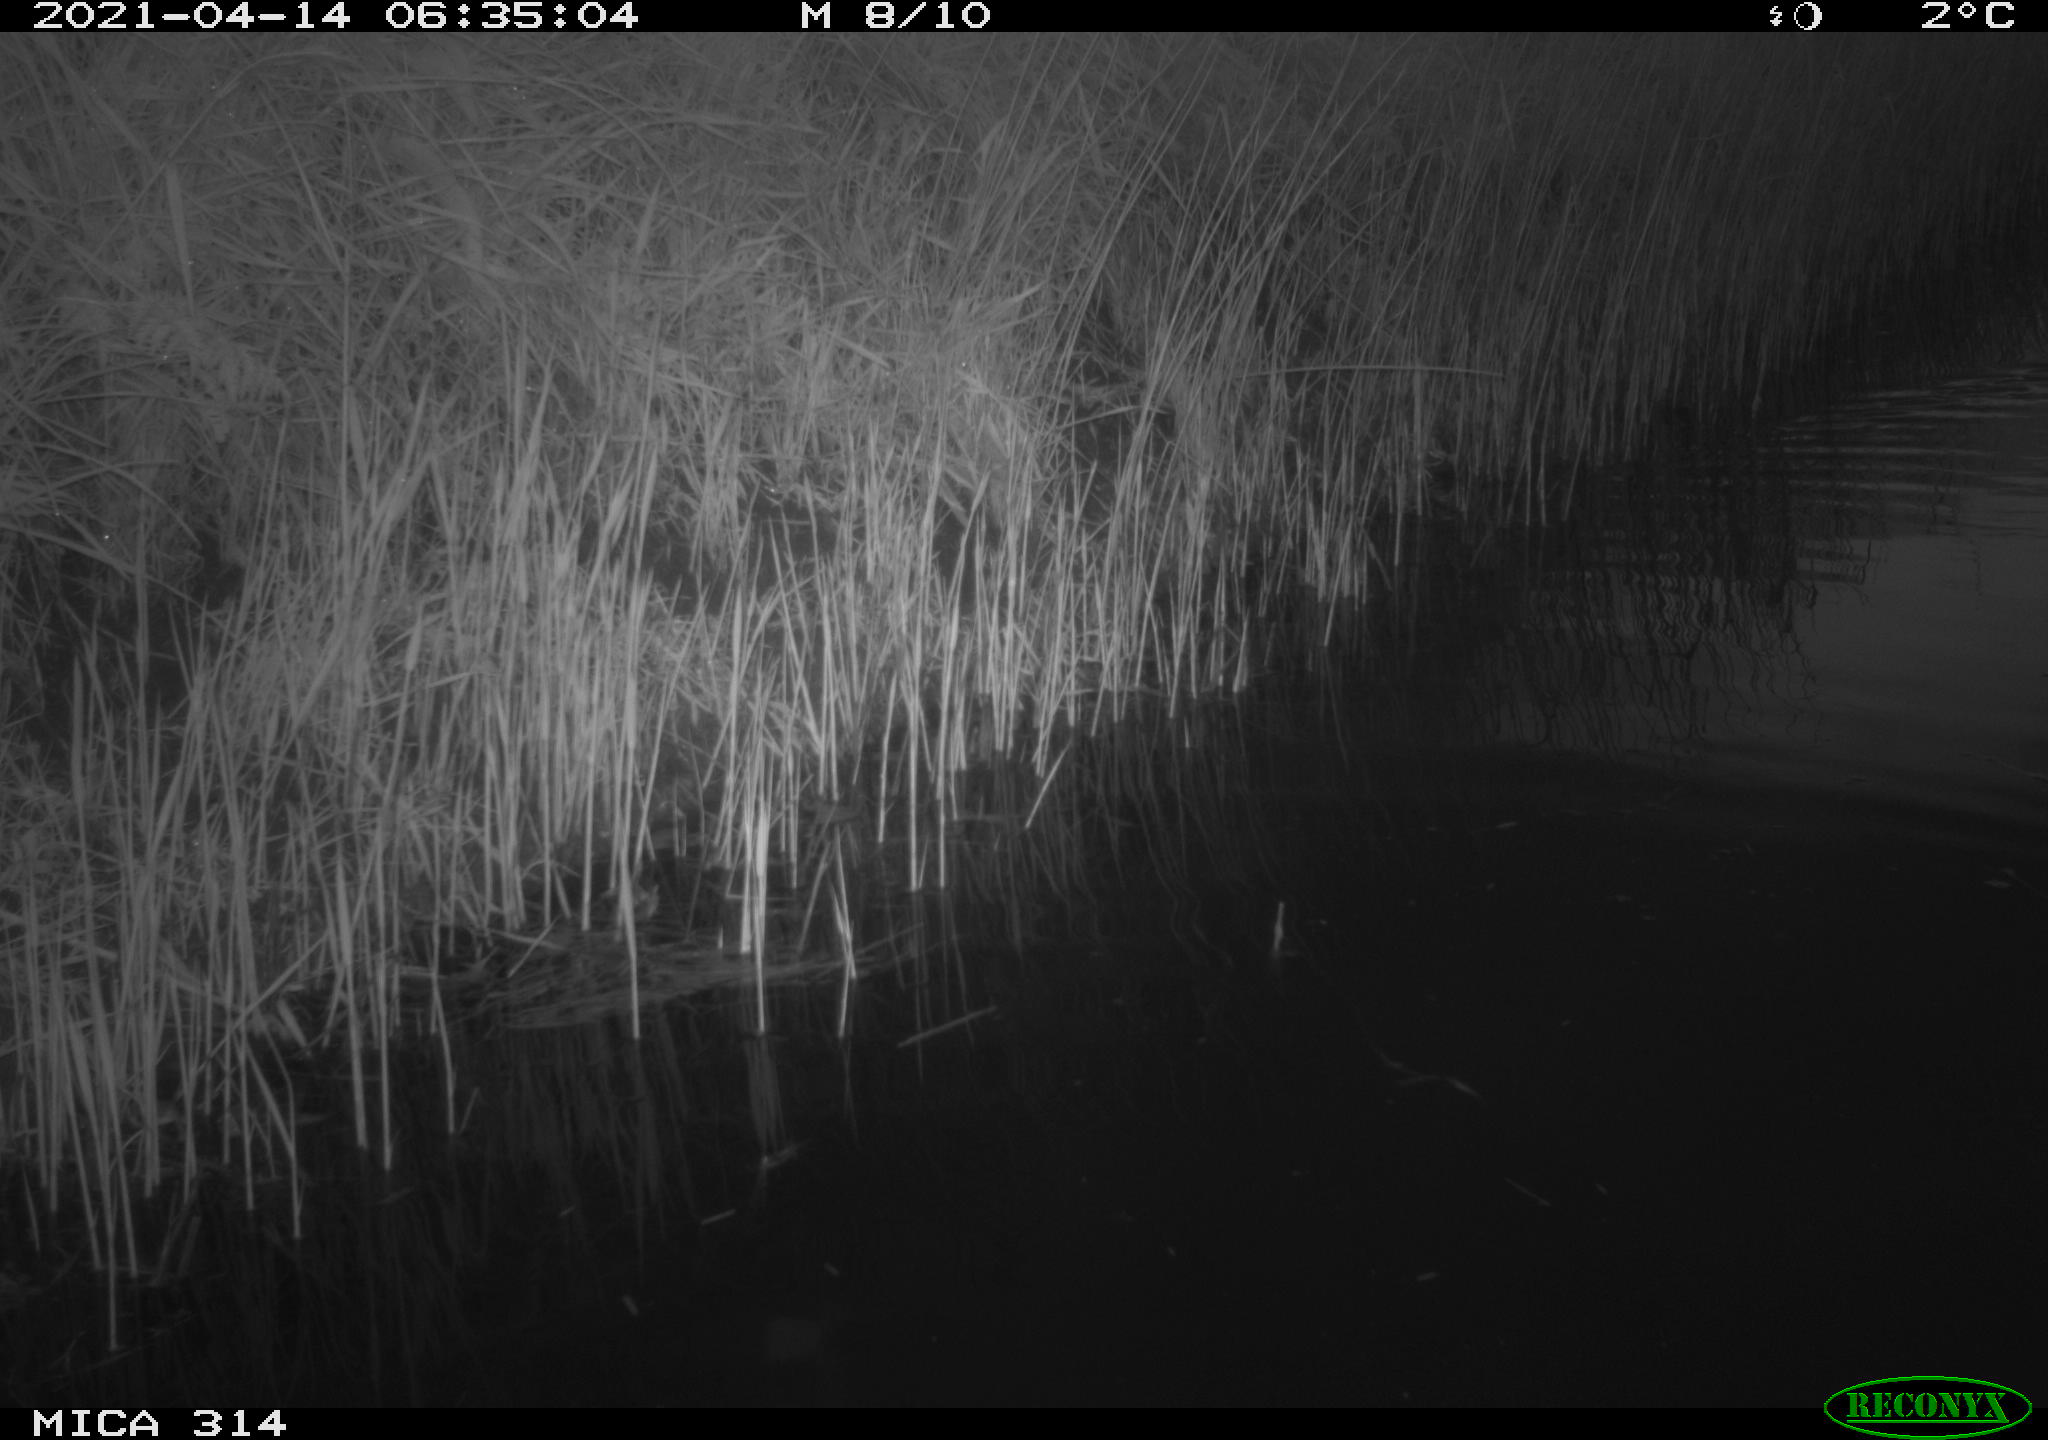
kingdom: Animalia
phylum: Chordata
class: Aves
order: Gruiformes
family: Rallidae
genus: Gallinula
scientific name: Gallinula chloropus
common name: Common moorhen
